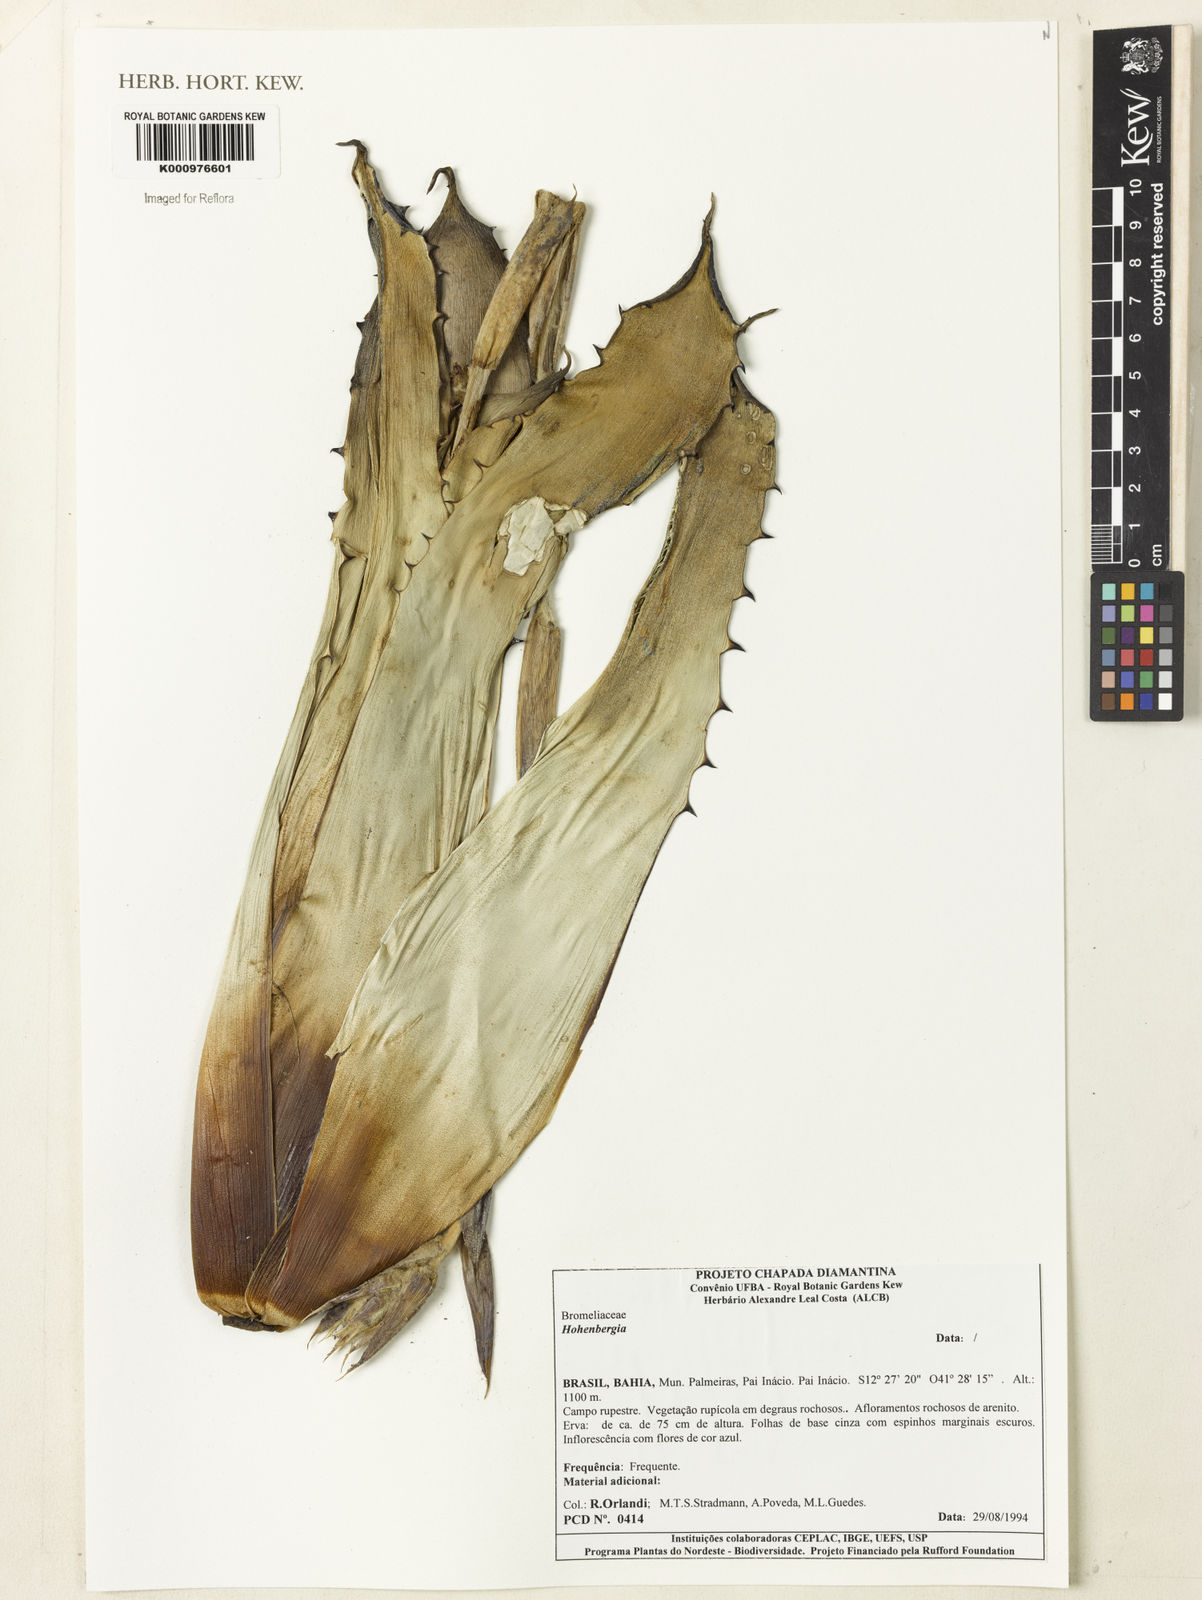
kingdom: Plantae
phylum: Tracheophyta
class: Liliopsida
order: Poales
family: Bromeliaceae
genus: Hohenbergia
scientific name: Hohenbergia
